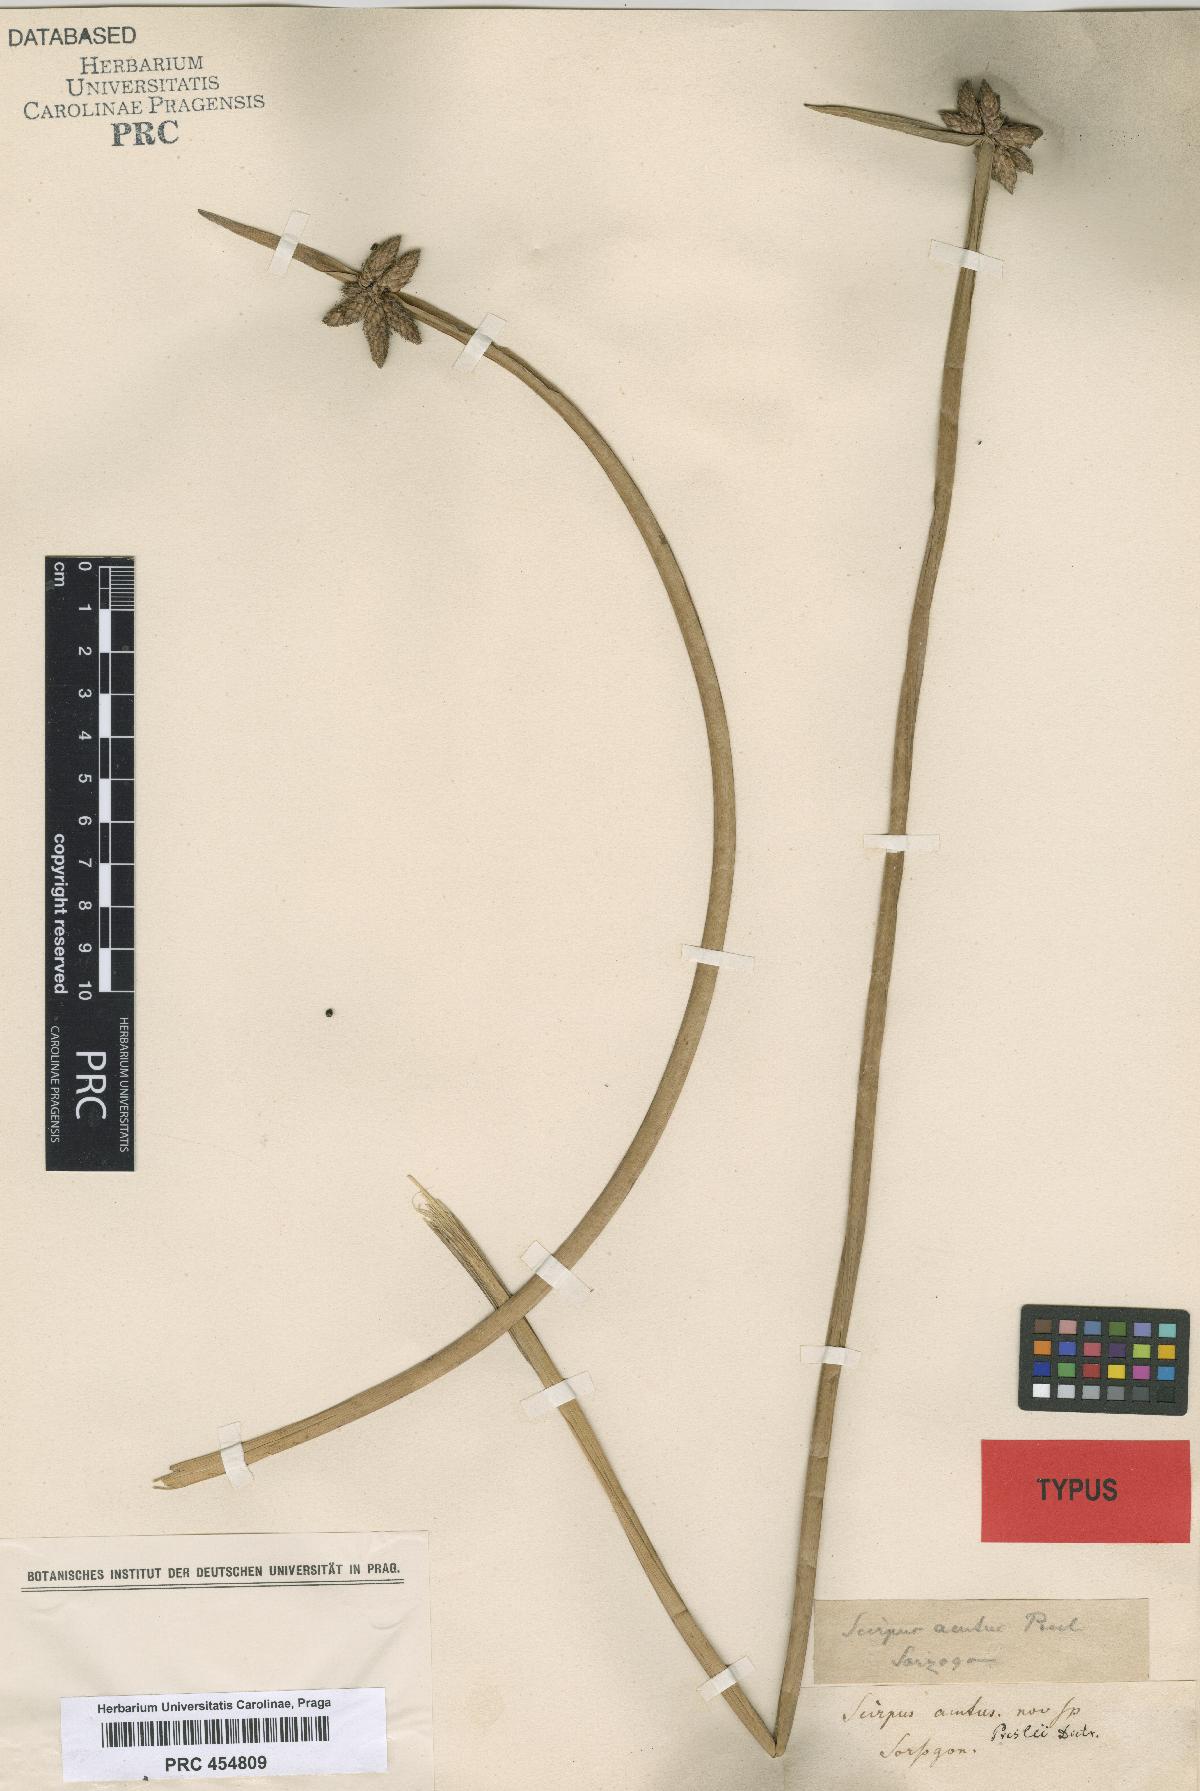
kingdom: Plantae
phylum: Tracheophyta
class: Liliopsida
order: Poales
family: Cyperaceae
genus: Schoenoplectiella
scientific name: Schoenoplectiella mucronata
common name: Bog bulrush
